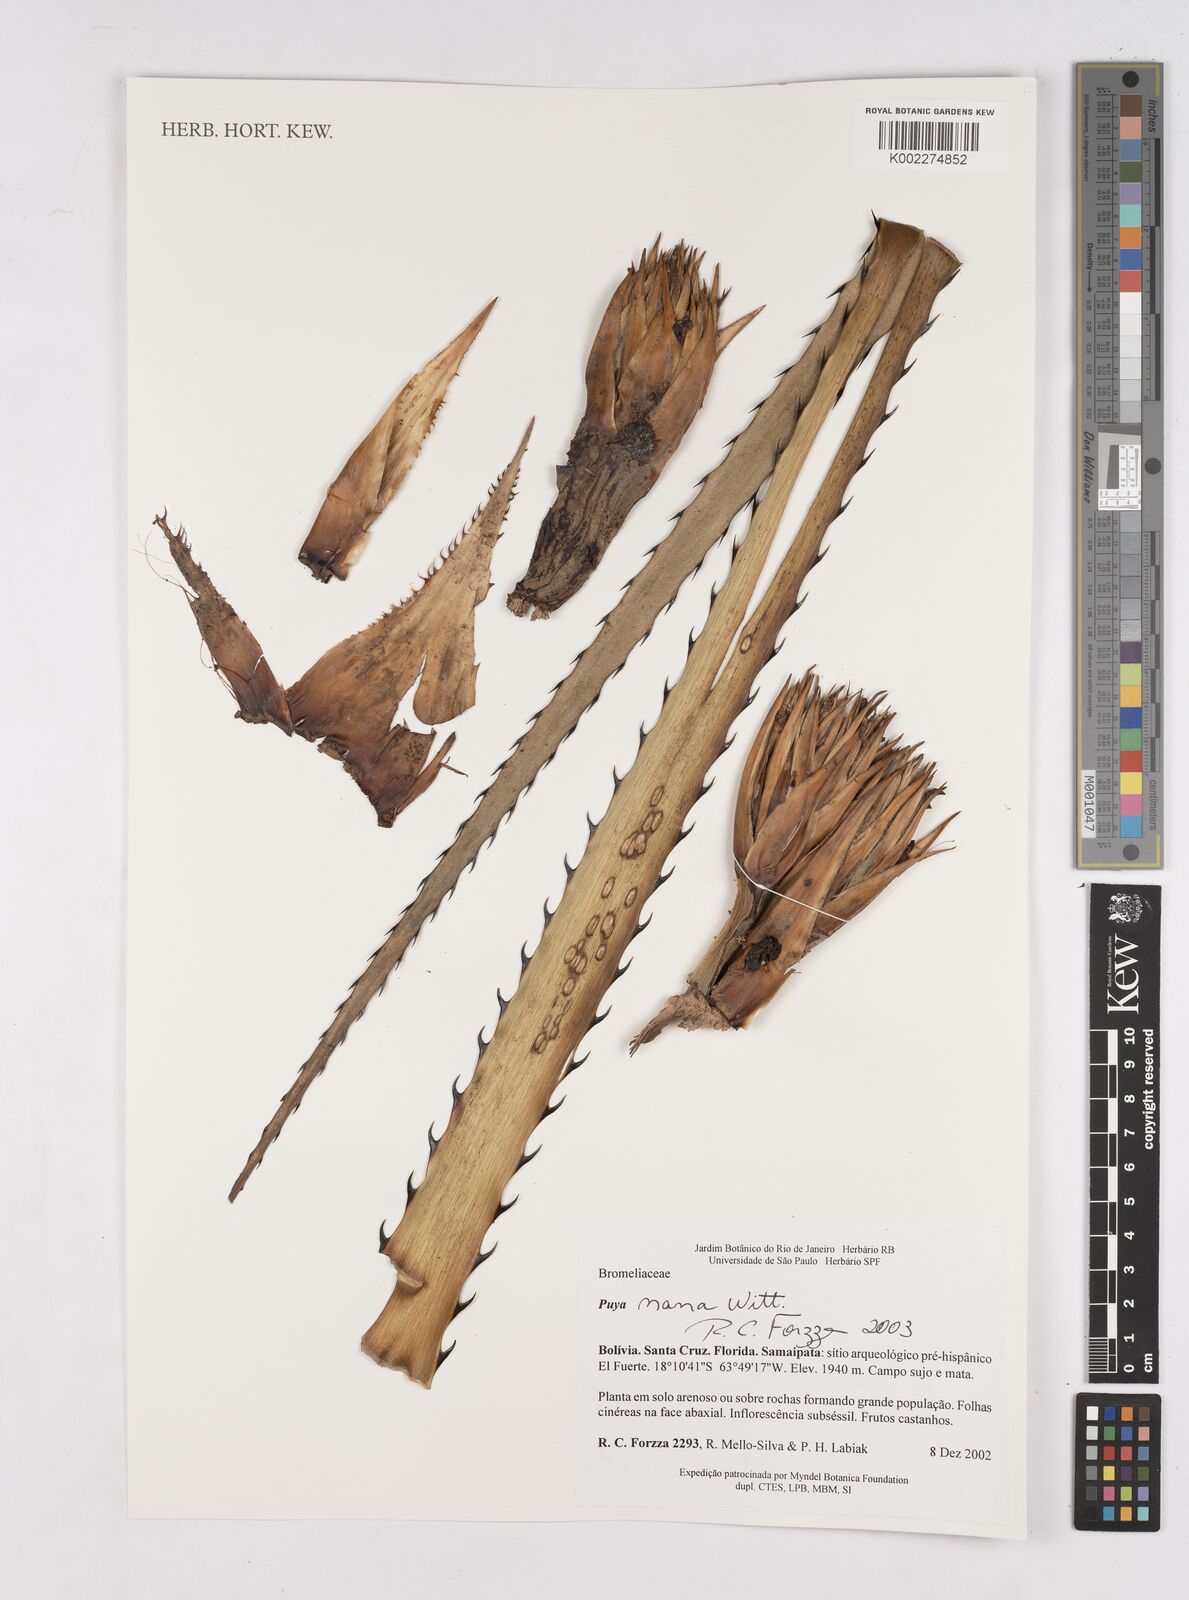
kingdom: Plantae
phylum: Tracheophyta
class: Liliopsida
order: Poales
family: Bromeliaceae
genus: Puya
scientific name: Puya nana
